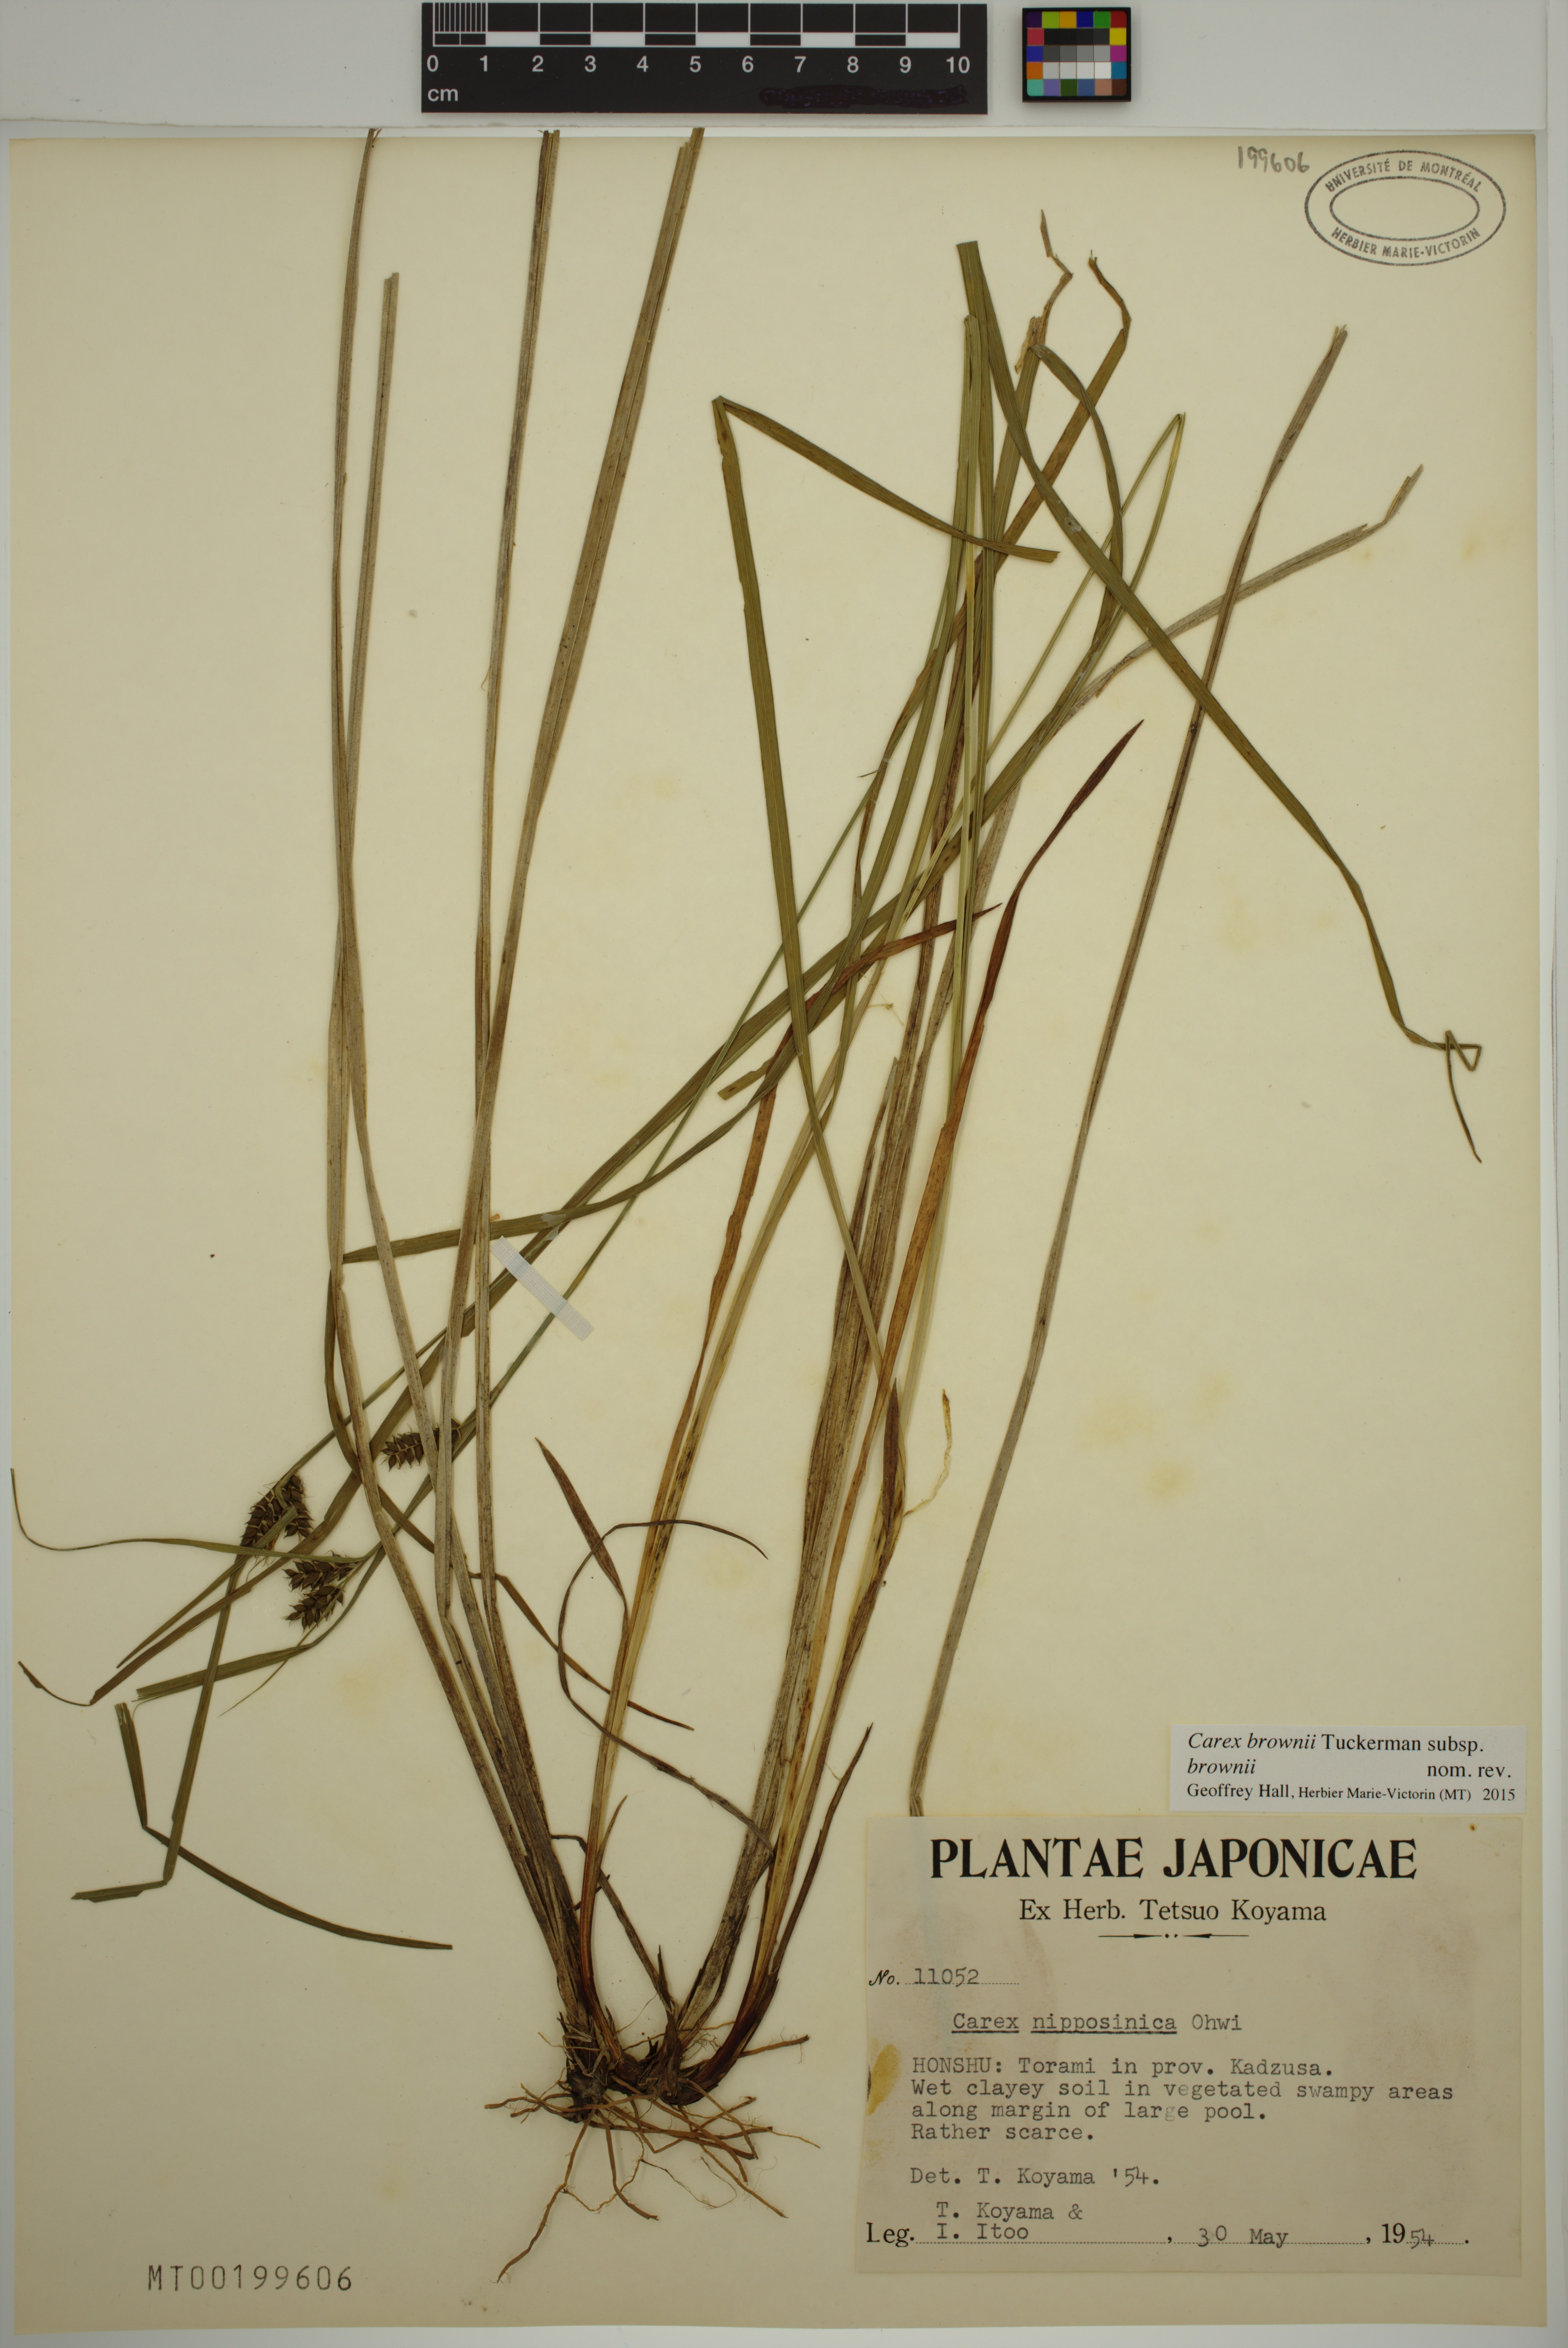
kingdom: Plantae
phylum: Tracheophyta
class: Liliopsida
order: Poales
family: Cyperaceae
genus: Carex
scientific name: Carex brownii
